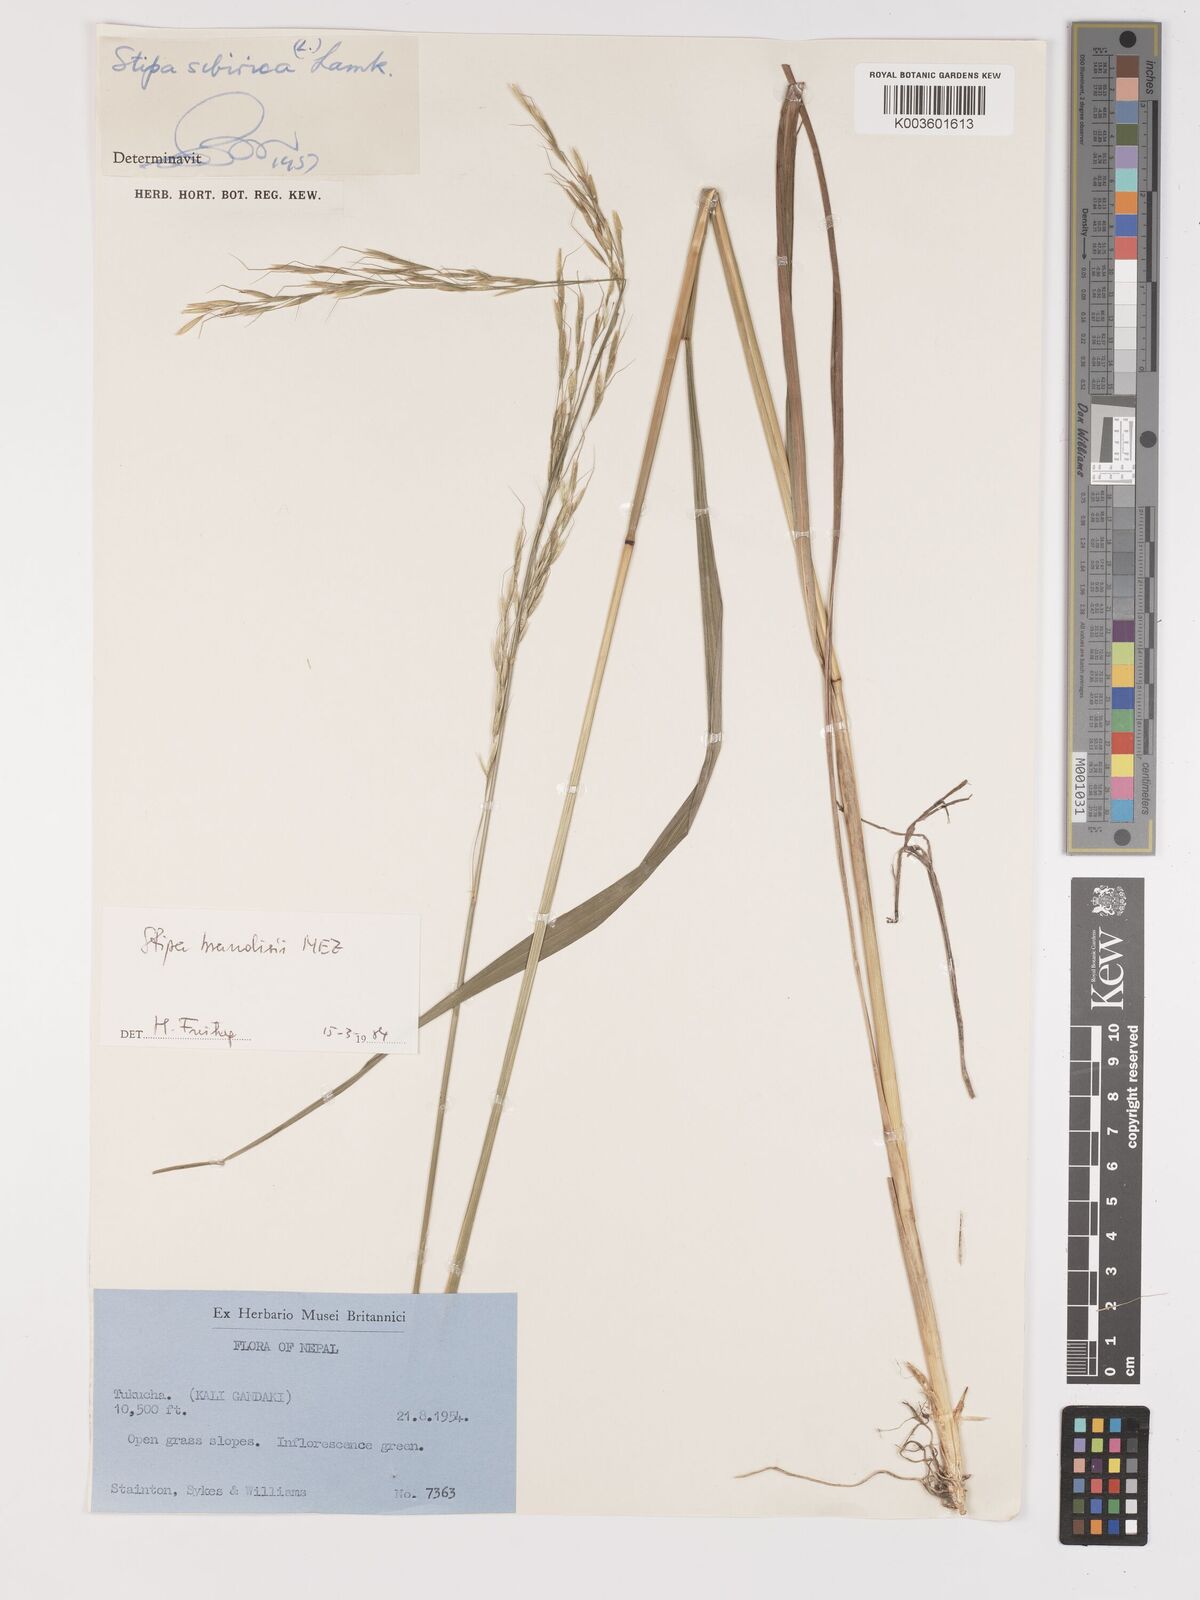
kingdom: Plantae
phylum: Tracheophyta
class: Liliopsida
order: Poales
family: Poaceae
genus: Achnatherum
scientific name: Achnatherum brandisii
